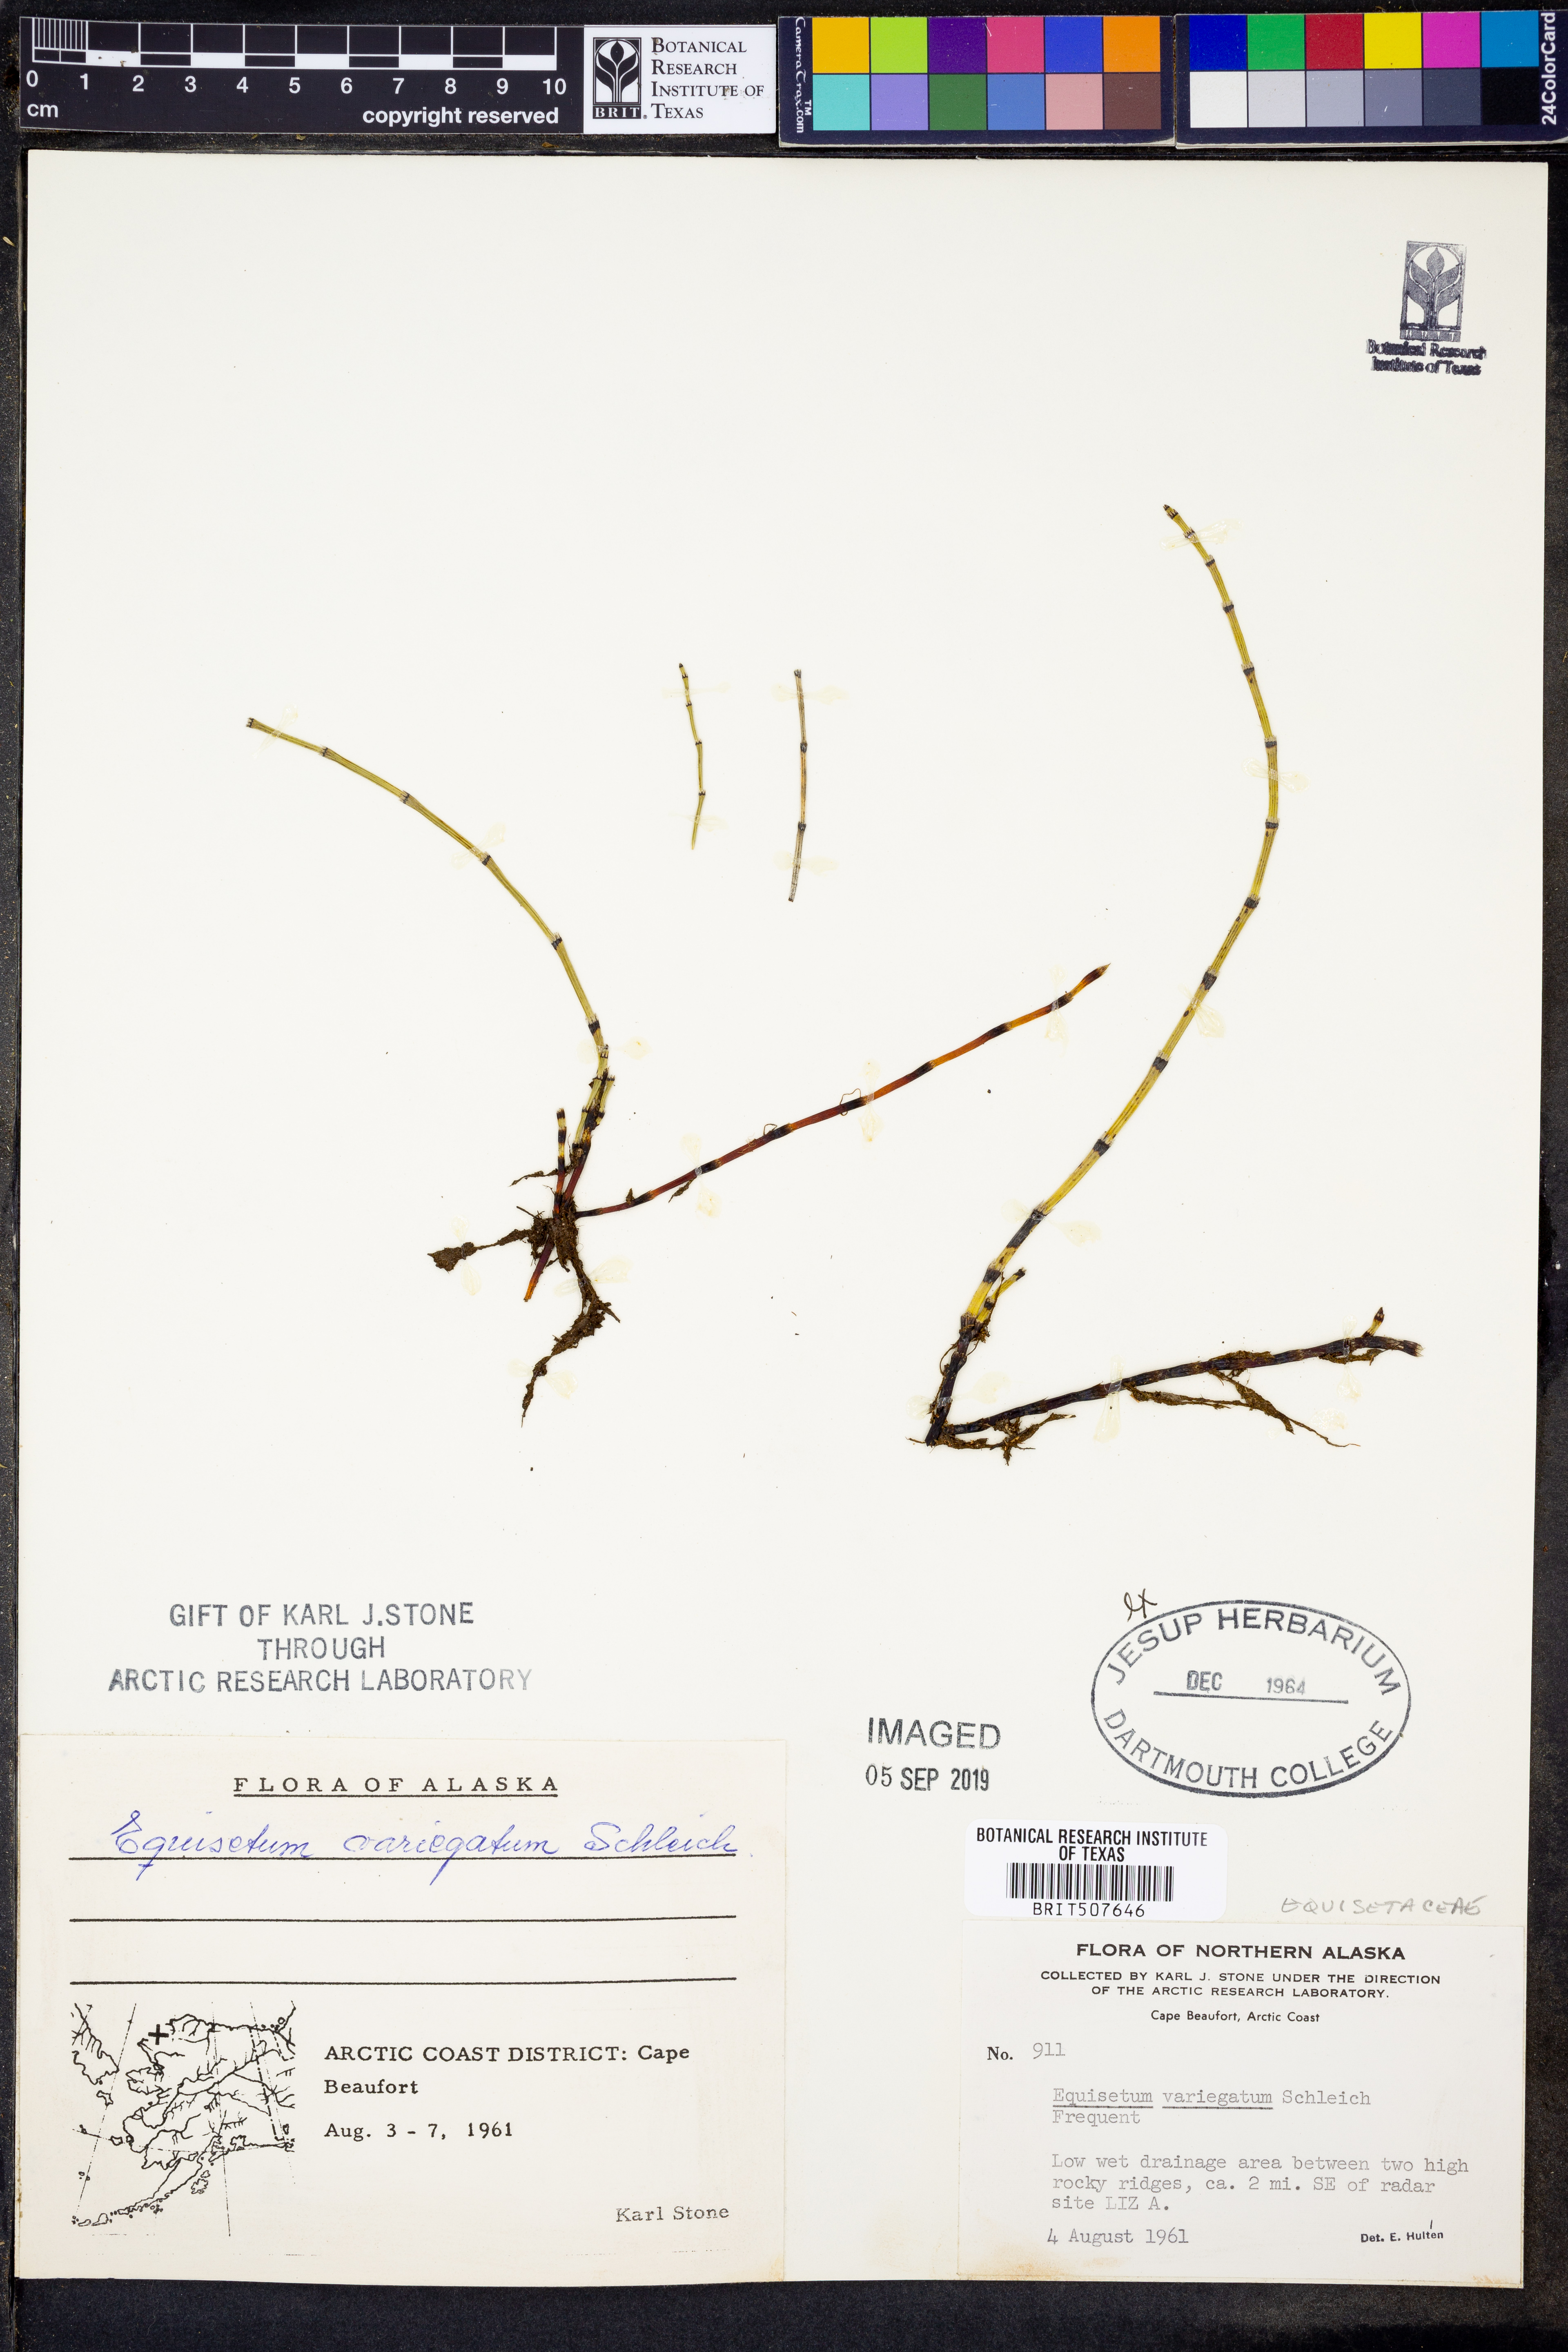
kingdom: Plantae
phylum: Tracheophyta
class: Polypodiopsida
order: Equisetales
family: Equisetaceae
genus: Equisetum
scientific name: Equisetum variegatum
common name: Variegated horsetail
